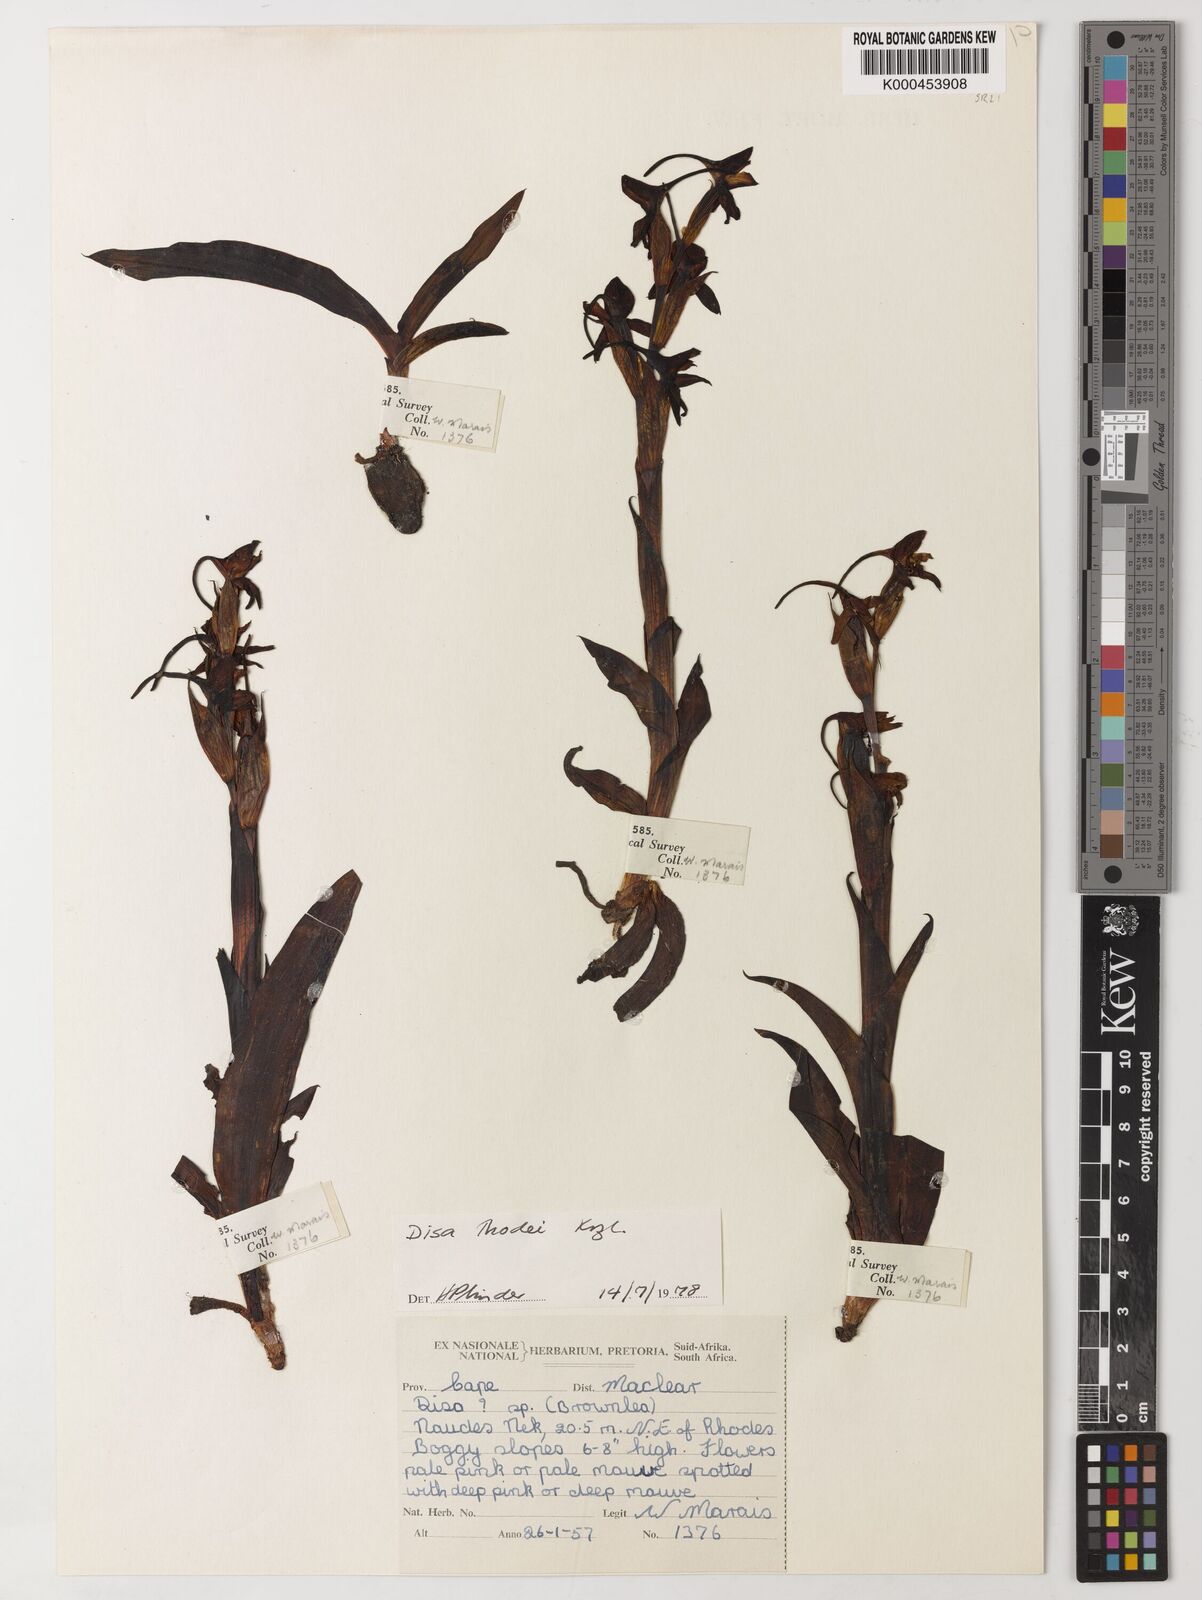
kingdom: Plantae
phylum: Tracheophyta
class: Liliopsida
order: Asparagales
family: Orchidaceae
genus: Disa
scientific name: Disa thodei
